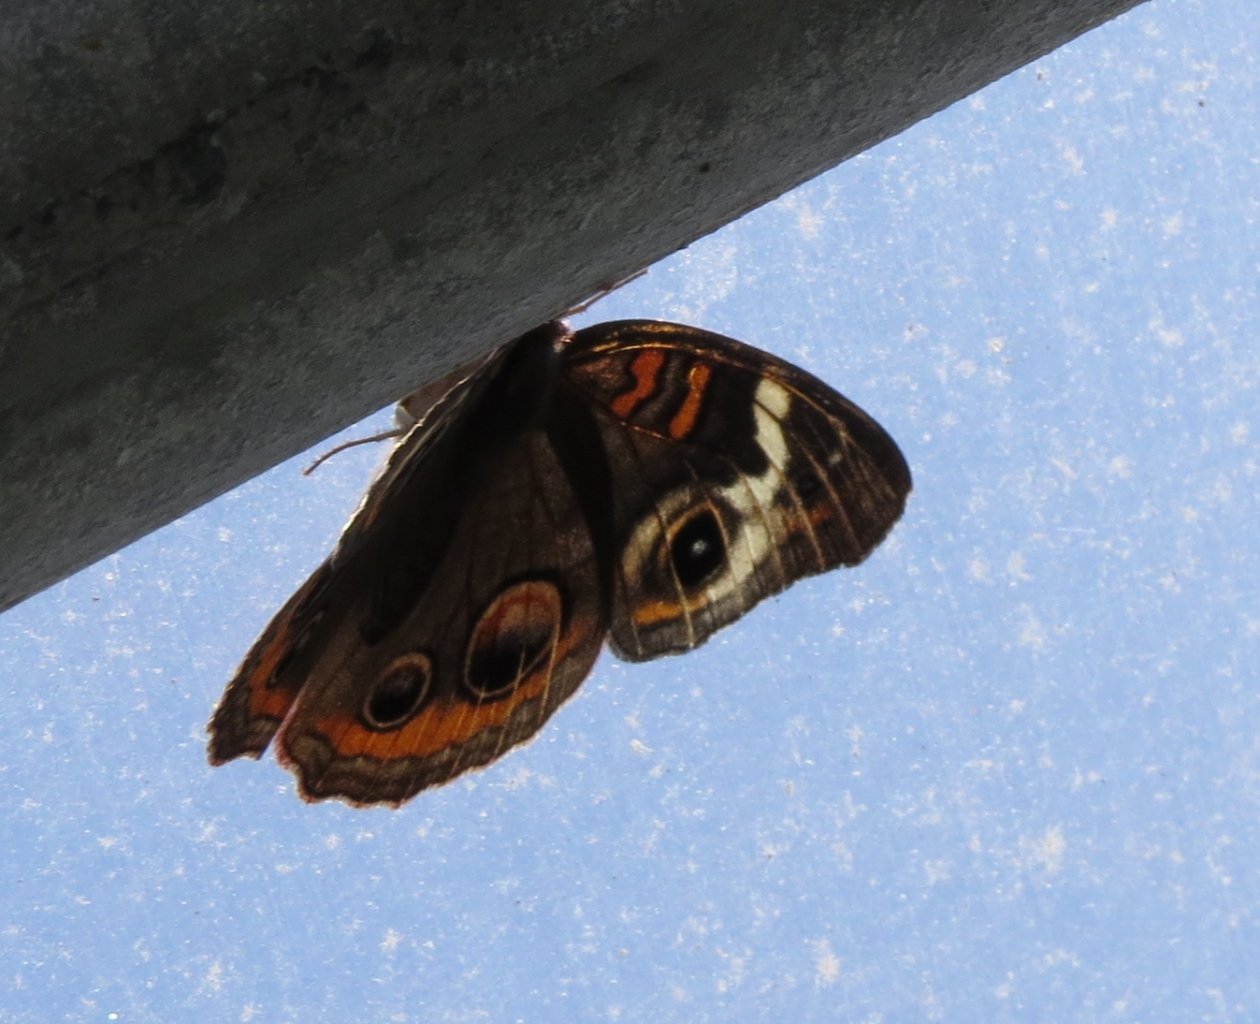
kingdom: Animalia
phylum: Arthropoda
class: Insecta
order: Lepidoptera
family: Nymphalidae
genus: Junonia
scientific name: Junonia coenia
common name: Common Buckeye
